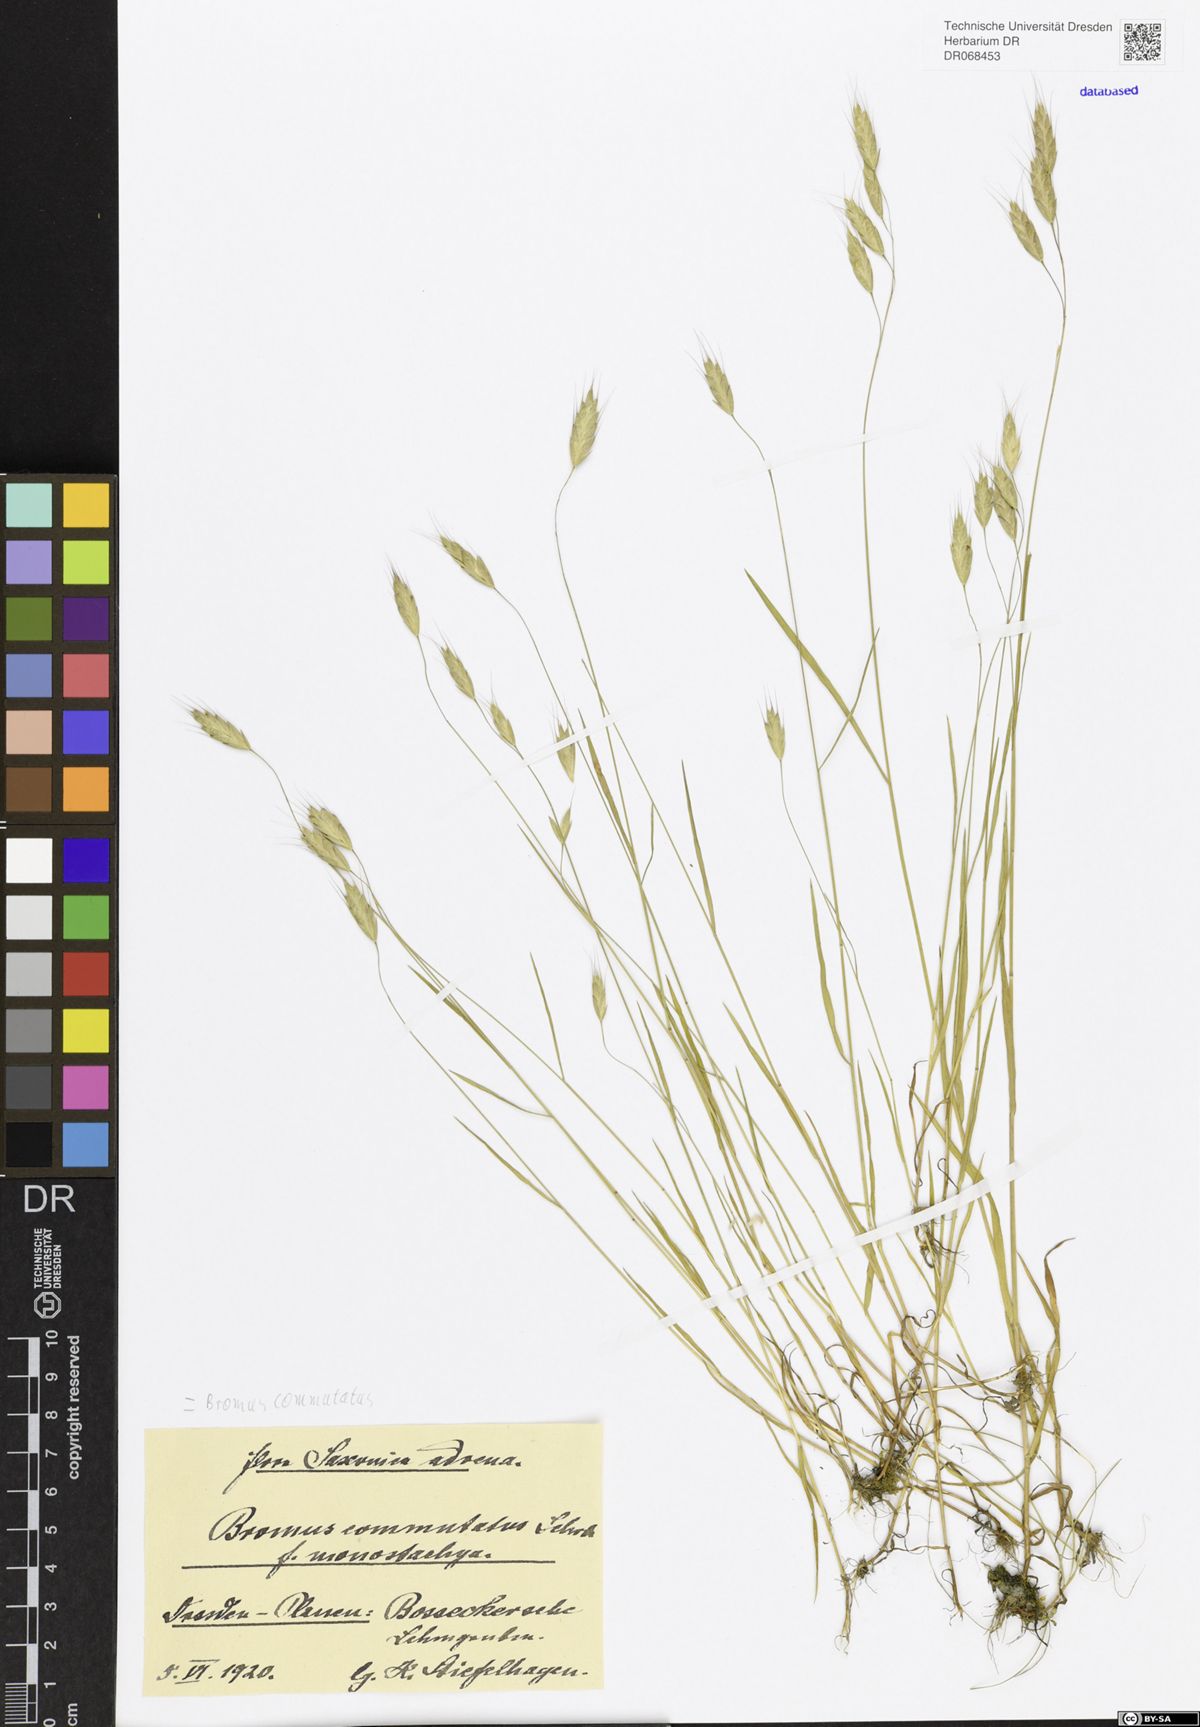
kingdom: Plantae
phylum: Tracheophyta
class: Liliopsida
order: Poales
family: Poaceae
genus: Bromus
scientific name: Bromus commutatus
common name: Meadow brome
